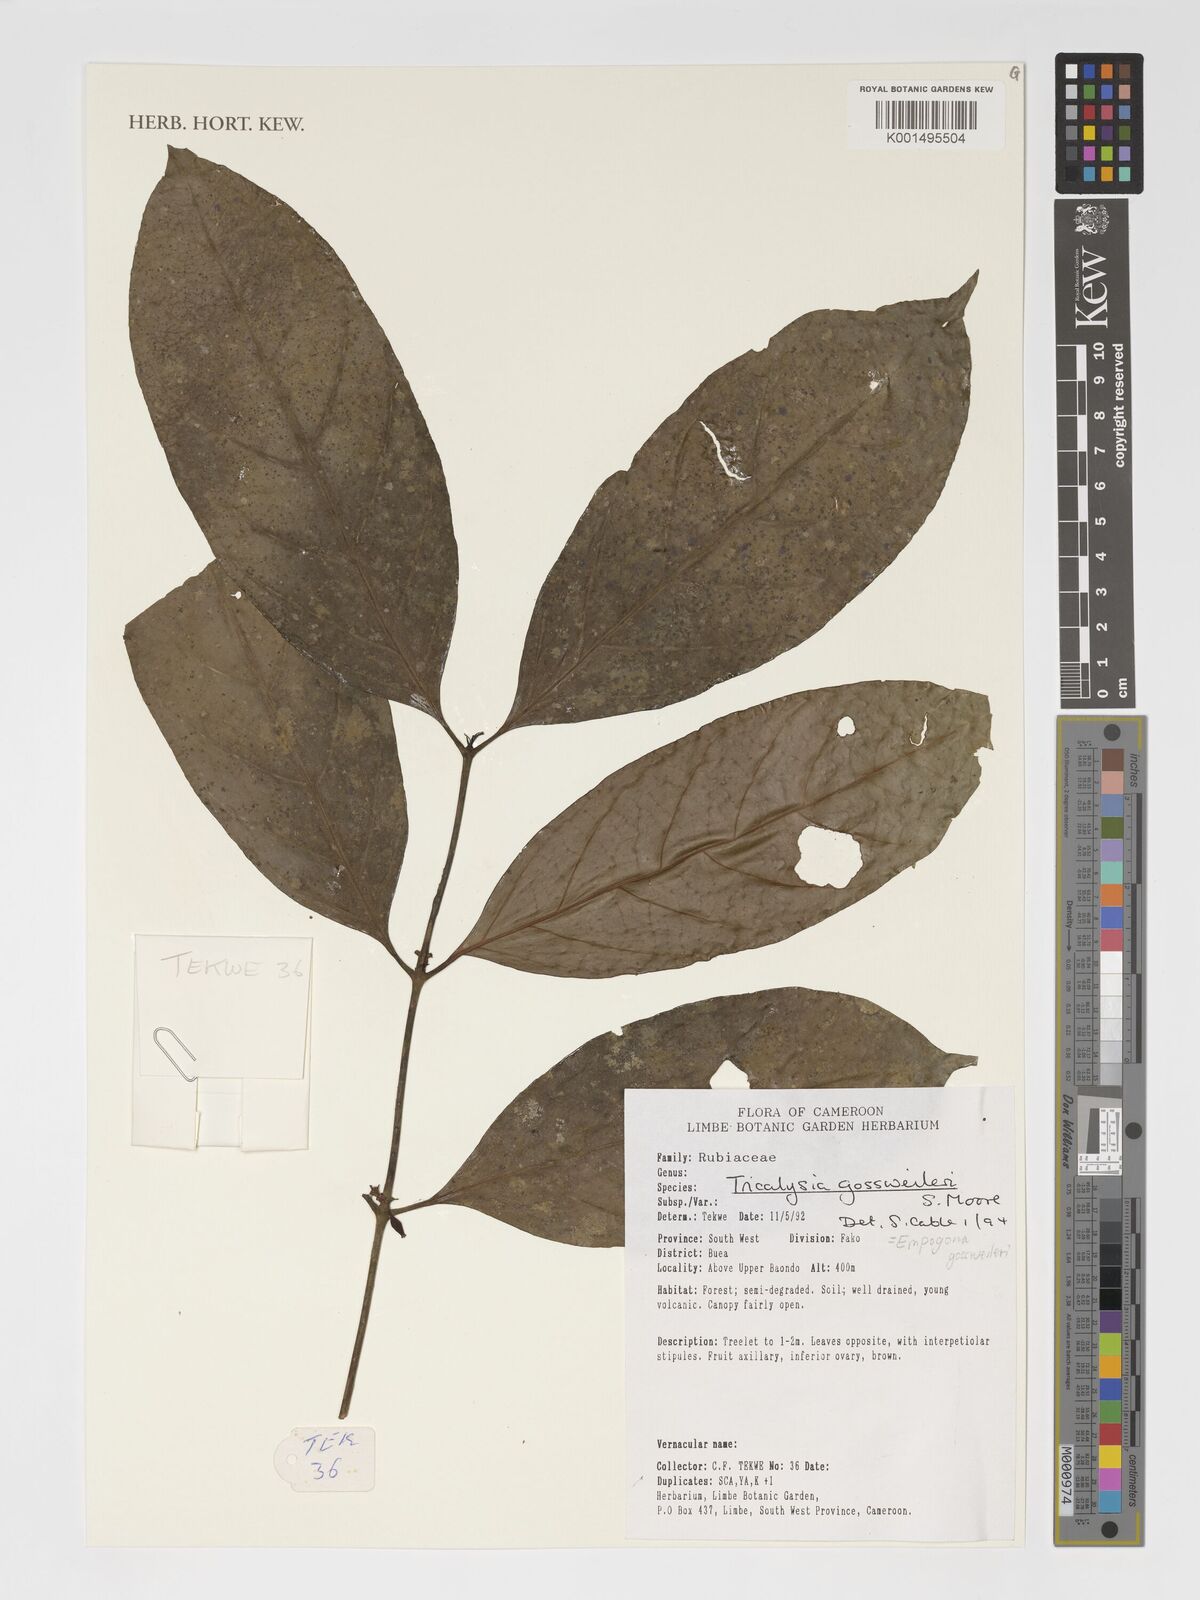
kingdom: Plantae
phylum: Tracheophyta
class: Magnoliopsida
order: Gentianales
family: Rubiaceae
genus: Empogona
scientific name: Empogona gossweileri
